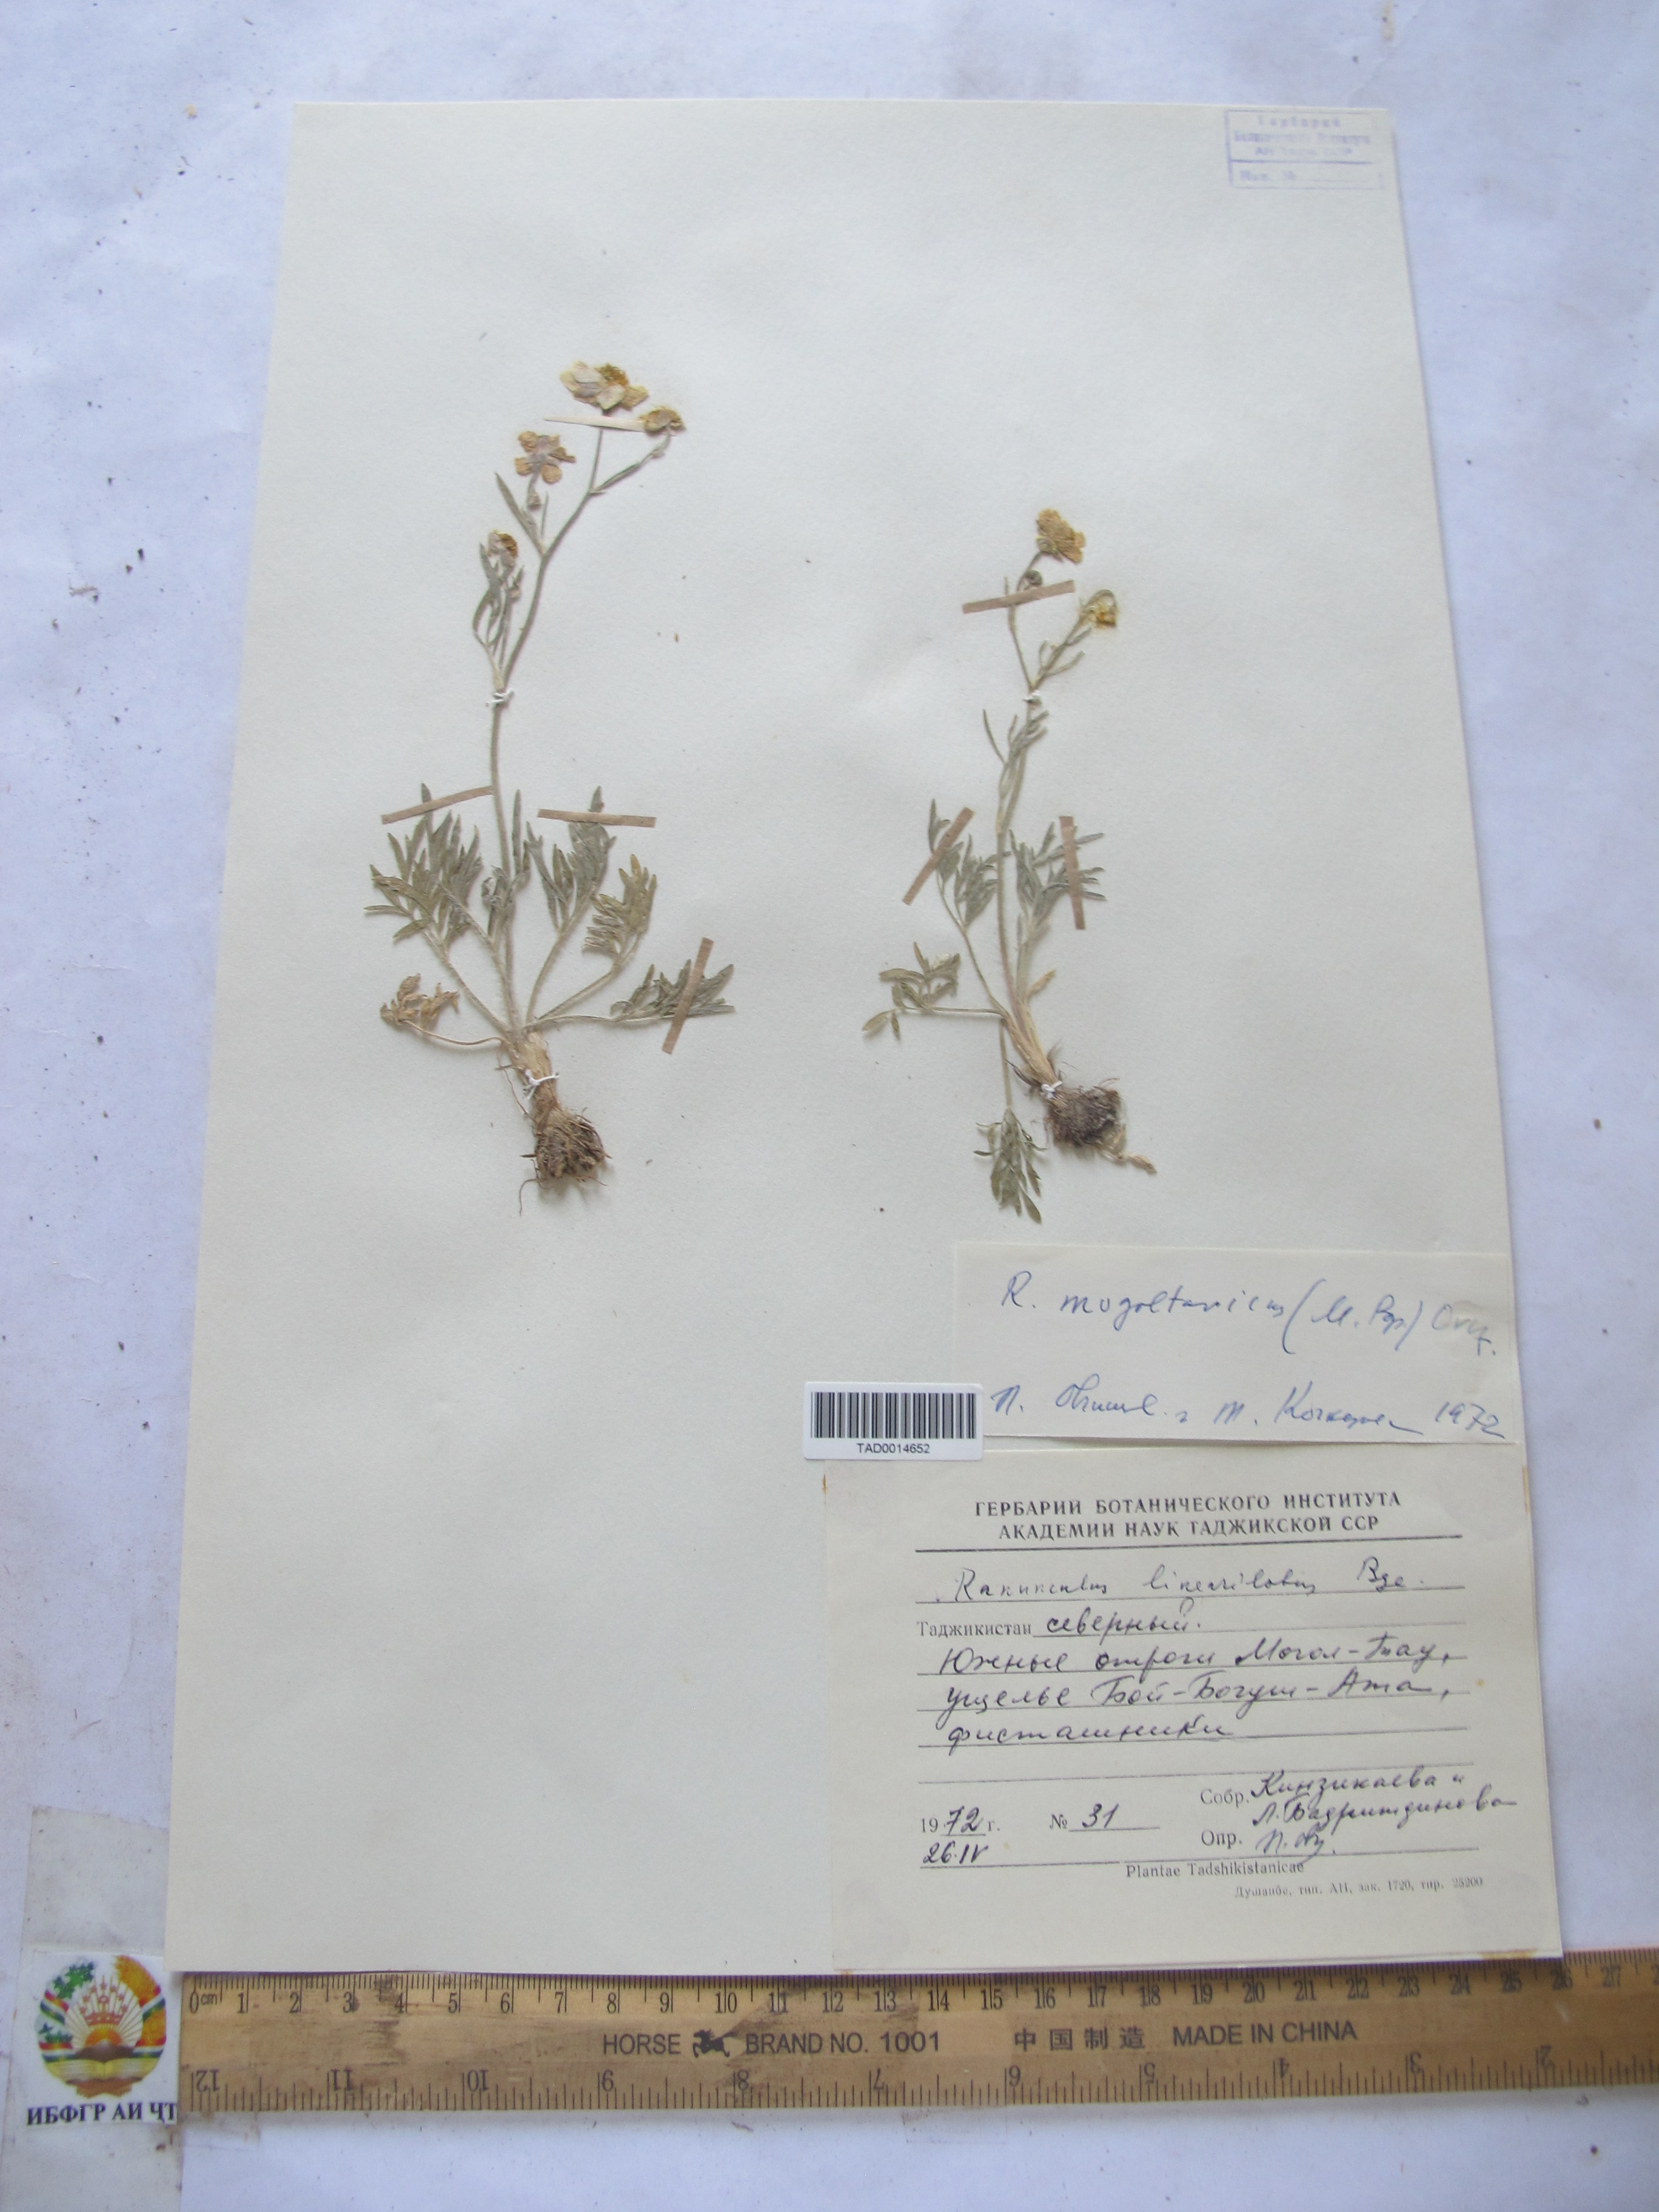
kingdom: Plantae
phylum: Tracheophyta
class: Magnoliopsida
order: Ranunculales
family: Ranunculaceae
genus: Ranunculus
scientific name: Ranunculus linearilobus
